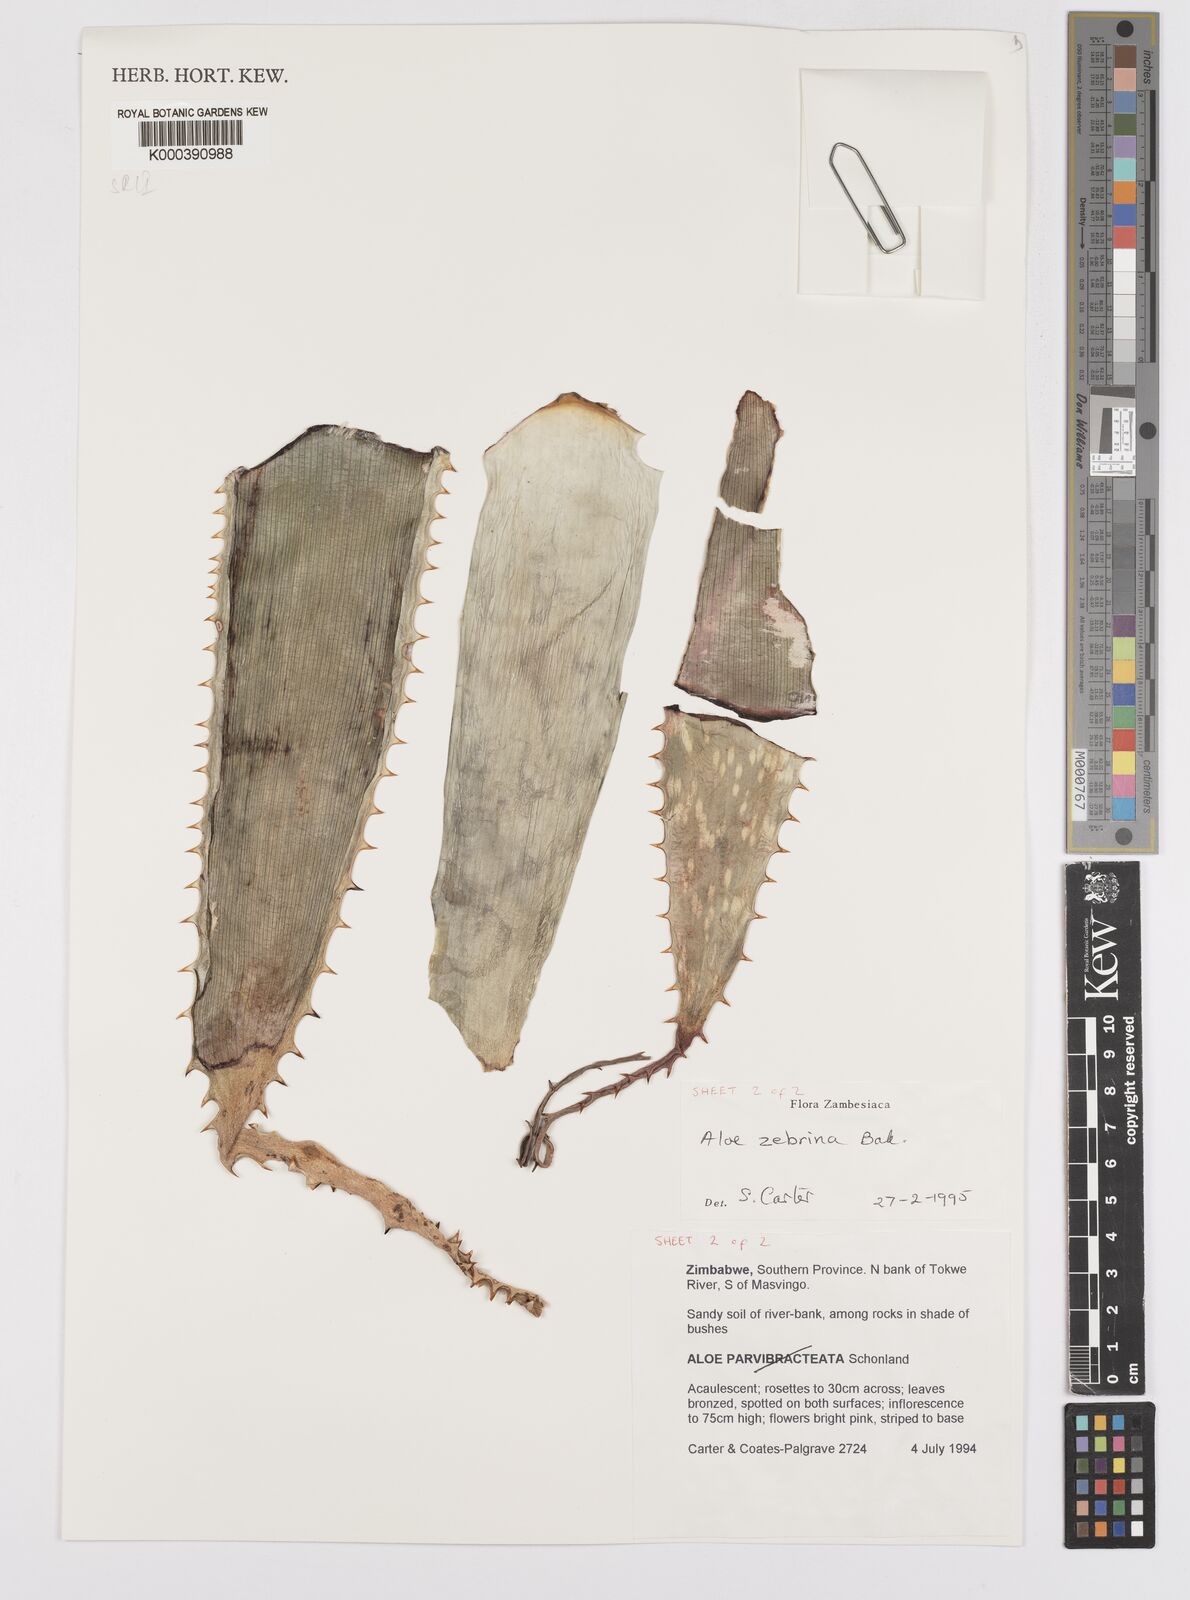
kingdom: Plantae
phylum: Tracheophyta
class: Liliopsida
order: Asparagales
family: Asphodelaceae
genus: Aloe
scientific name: Aloe zebrina
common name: Zebra-leaf aloe
